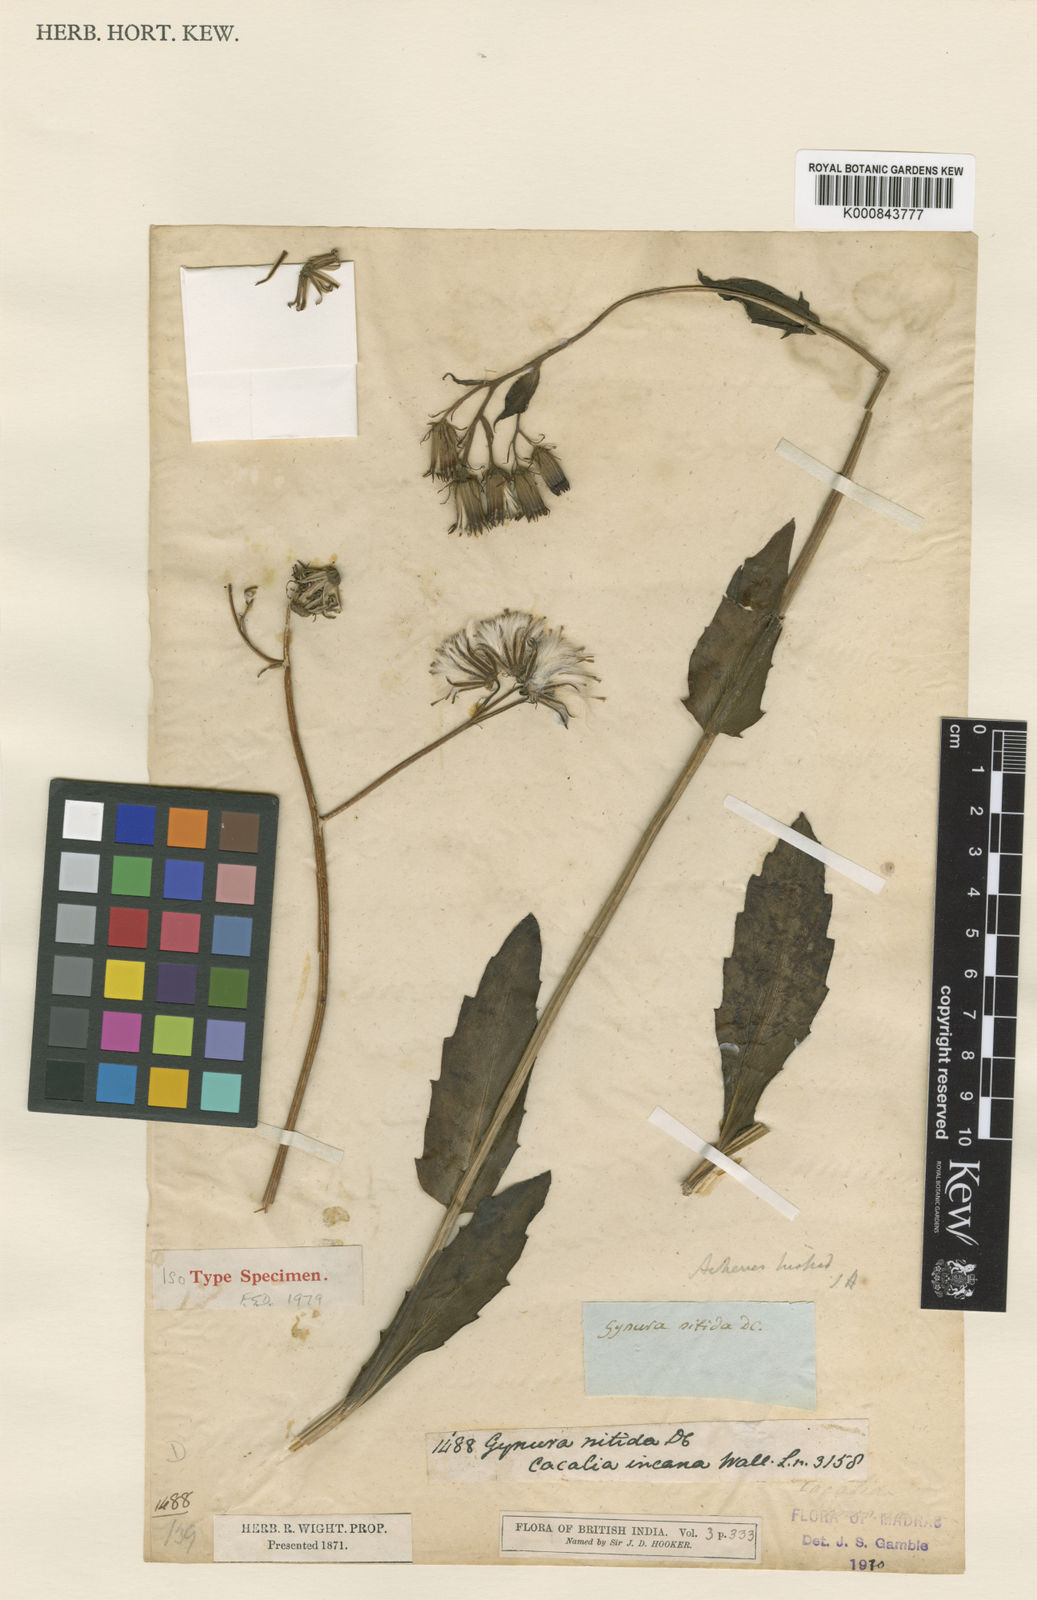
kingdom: Plantae
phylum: Tracheophyta
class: Magnoliopsida
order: Asterales
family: Asteraceae
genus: Gynura
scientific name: Gynura nitida
